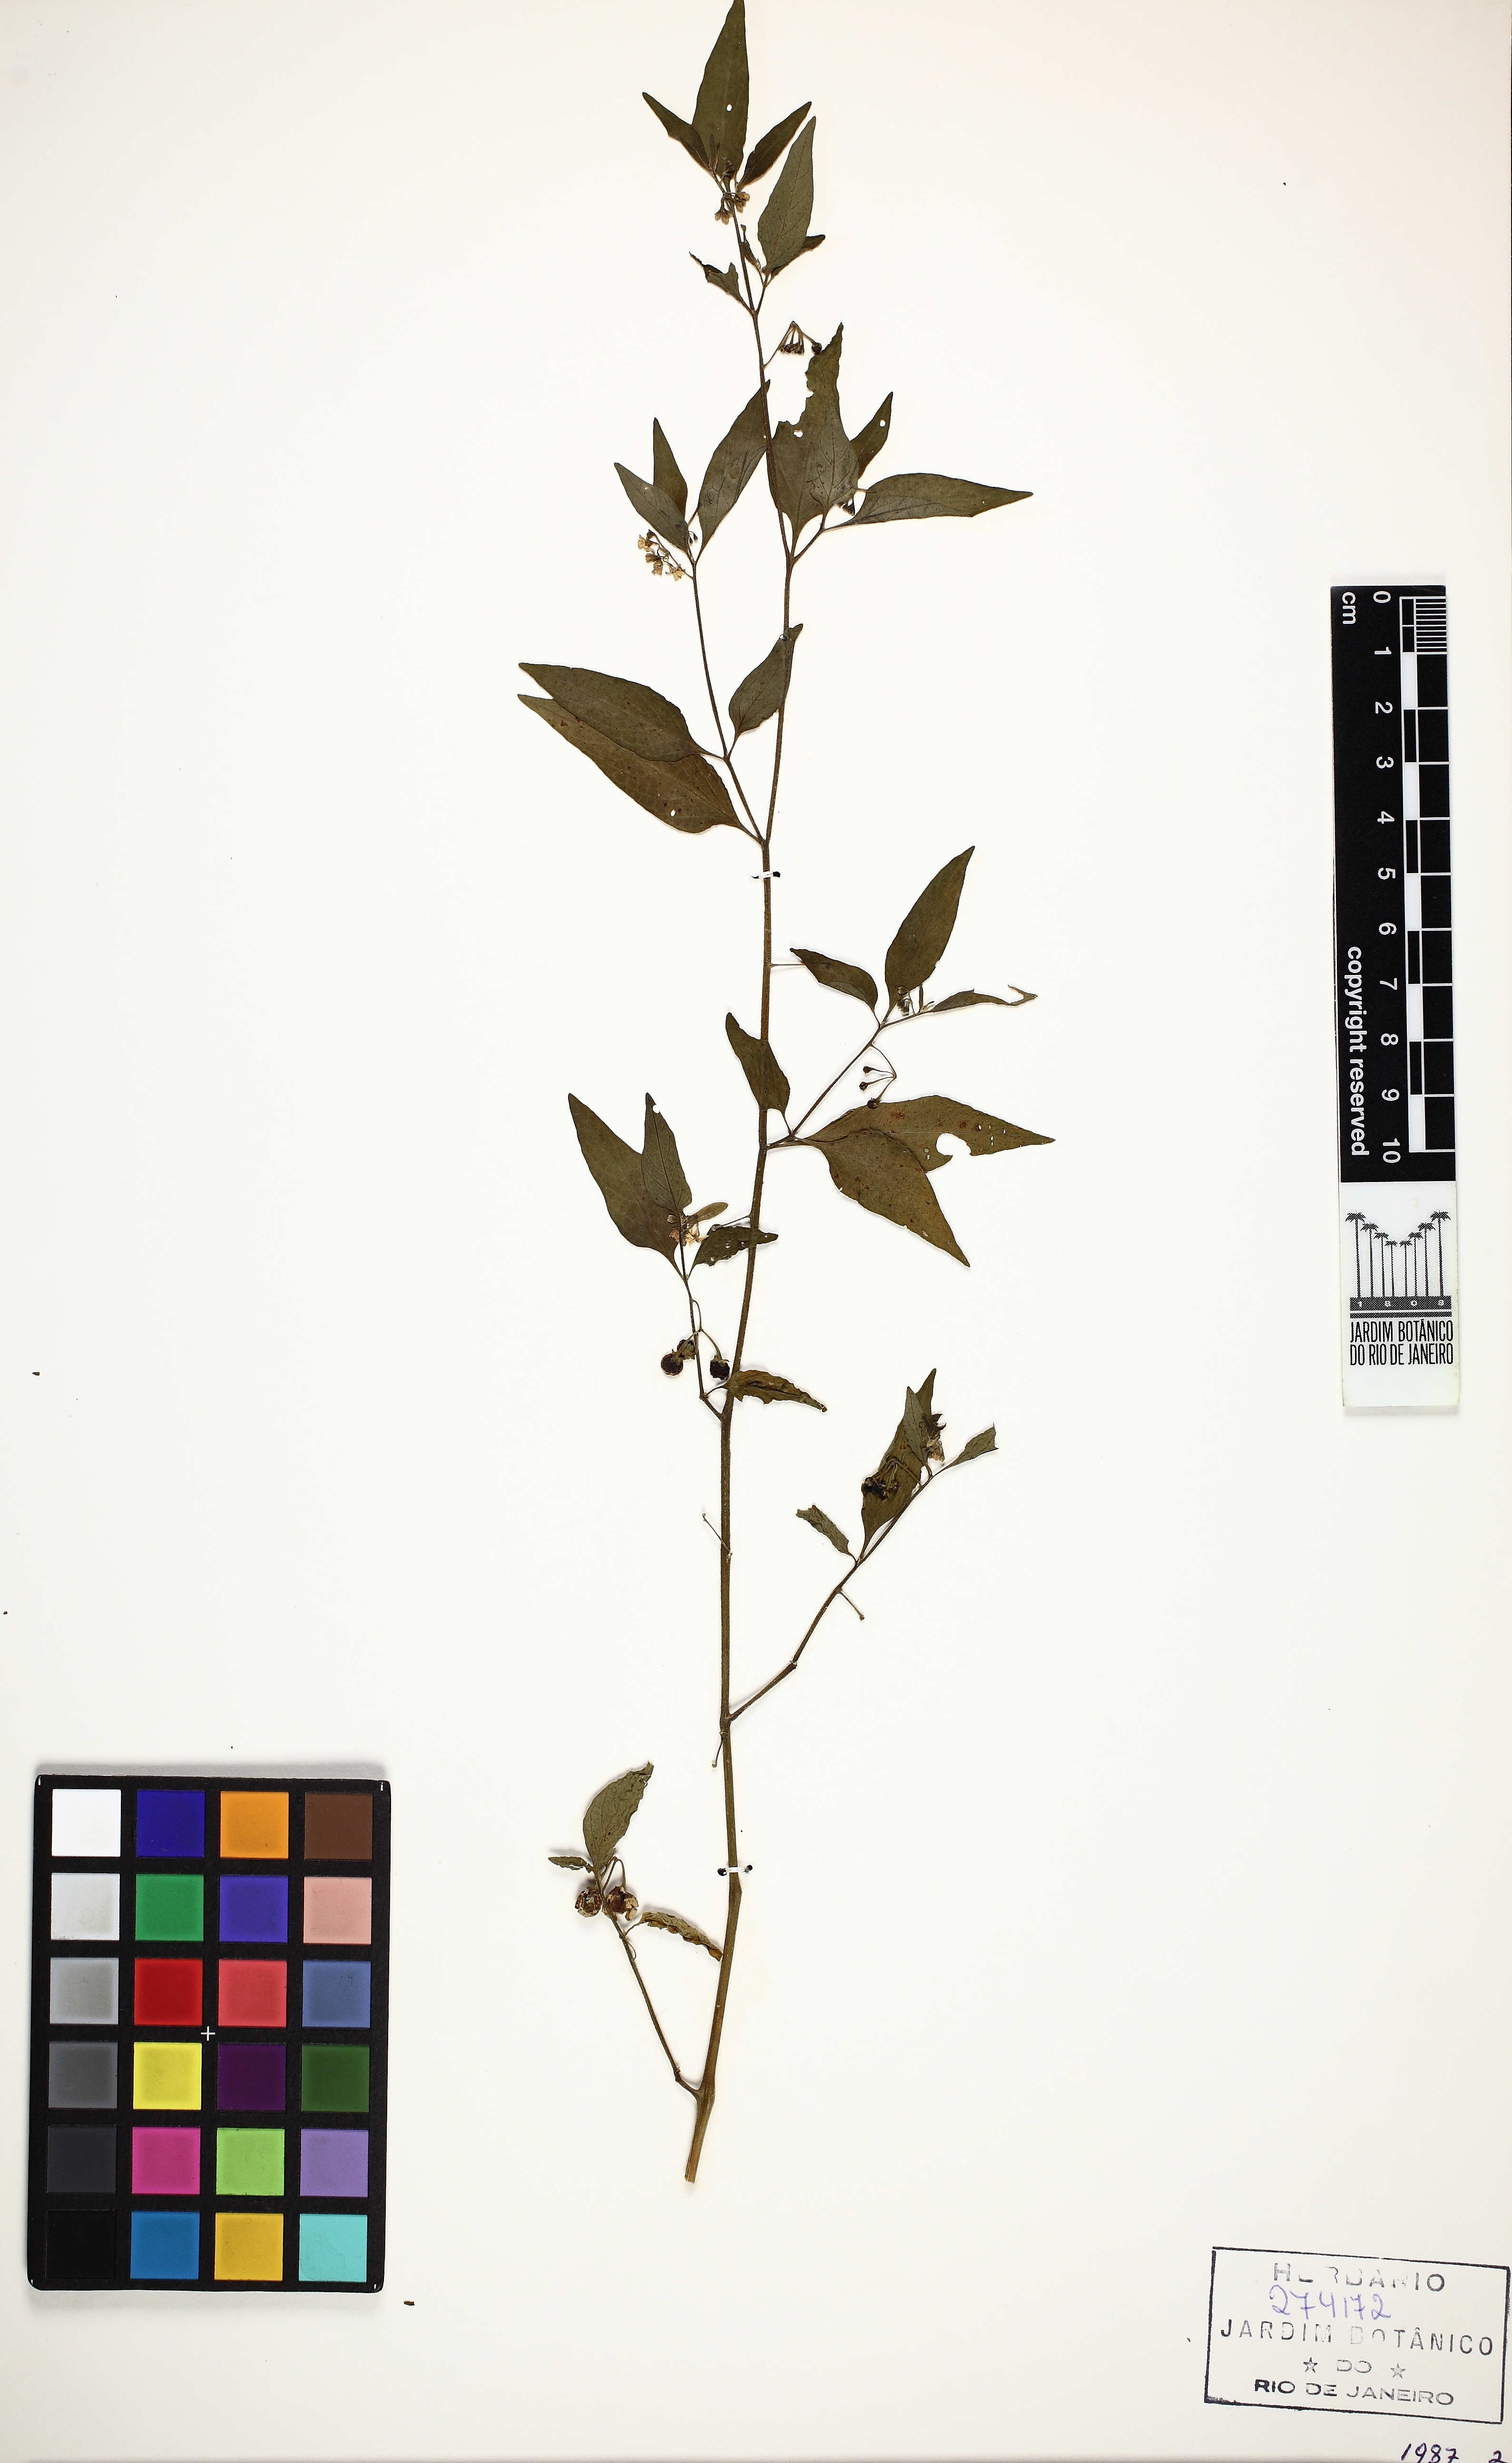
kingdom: Plantae
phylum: Tracheophyta
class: Magnoliopsida
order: Solanales
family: Solanaceae
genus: Solanum
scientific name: Solanum americanum
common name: American black nightshade
